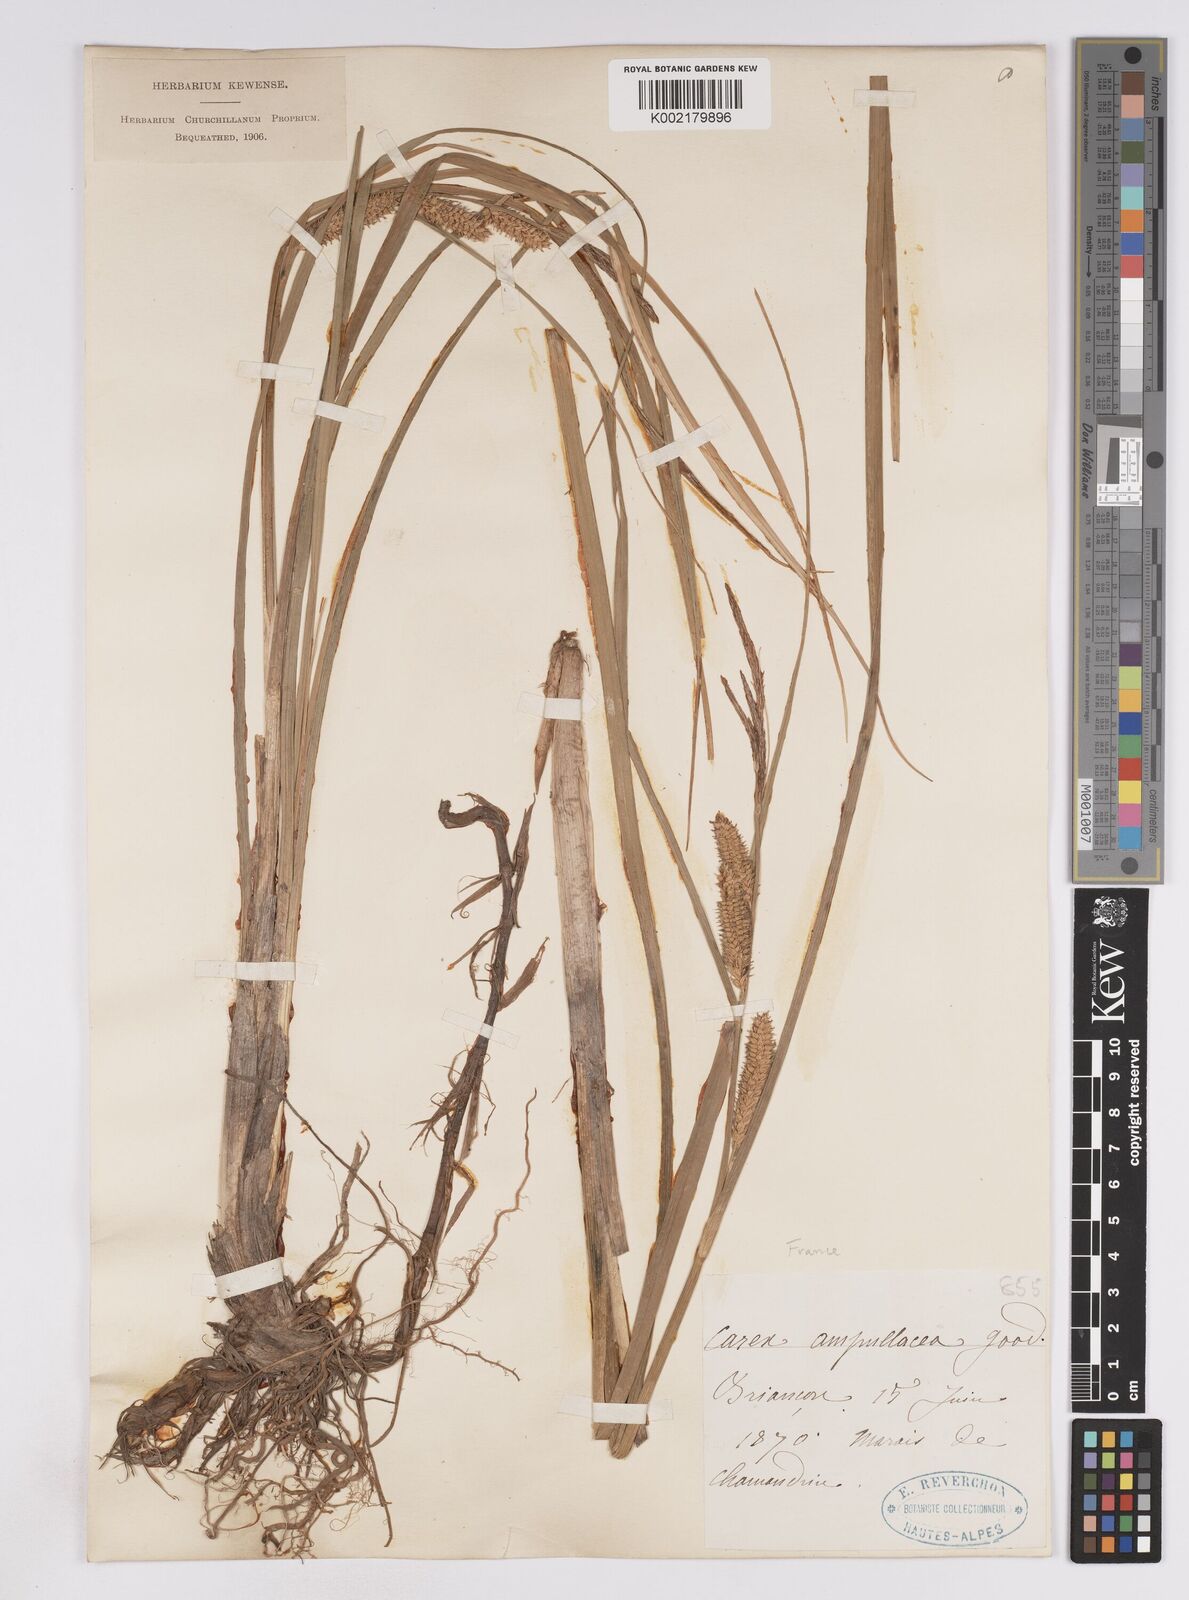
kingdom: Plantae
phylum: Tracheophyta
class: Liliopsida
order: Poales
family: Cyperaceae
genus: Carex
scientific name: Carex rostrata
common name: Bottle sedge
